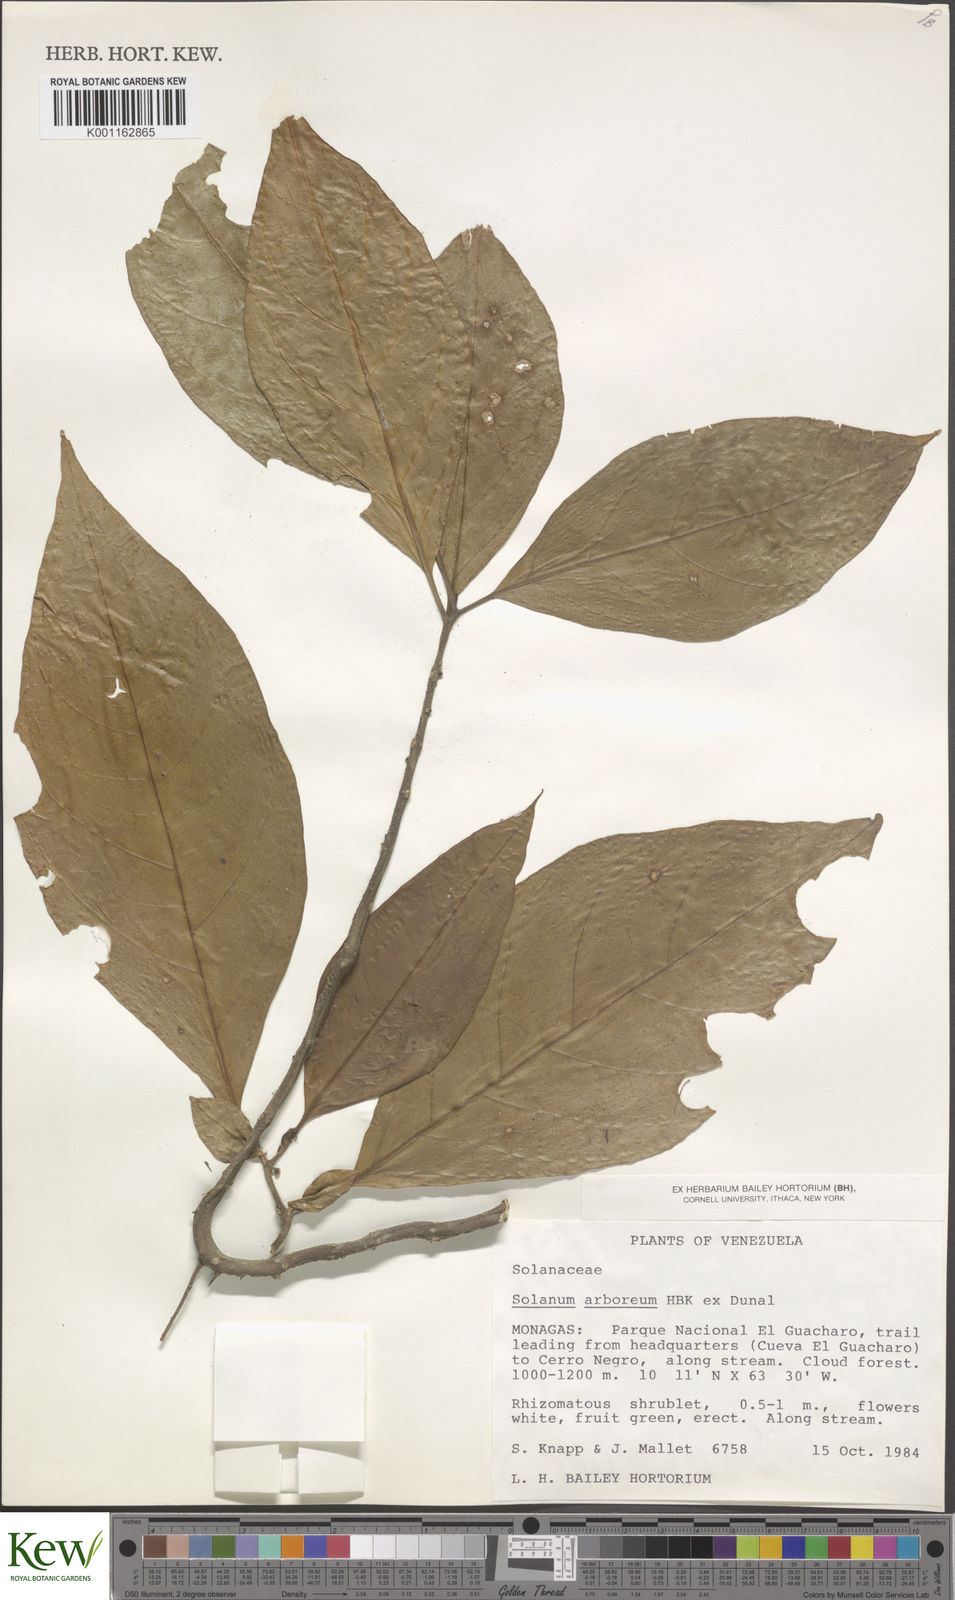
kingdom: Plantae
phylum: Tracheophyta
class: Magnoliopsida
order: Solanales
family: Solanaceae
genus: Solanum
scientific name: Solanum arboreum
